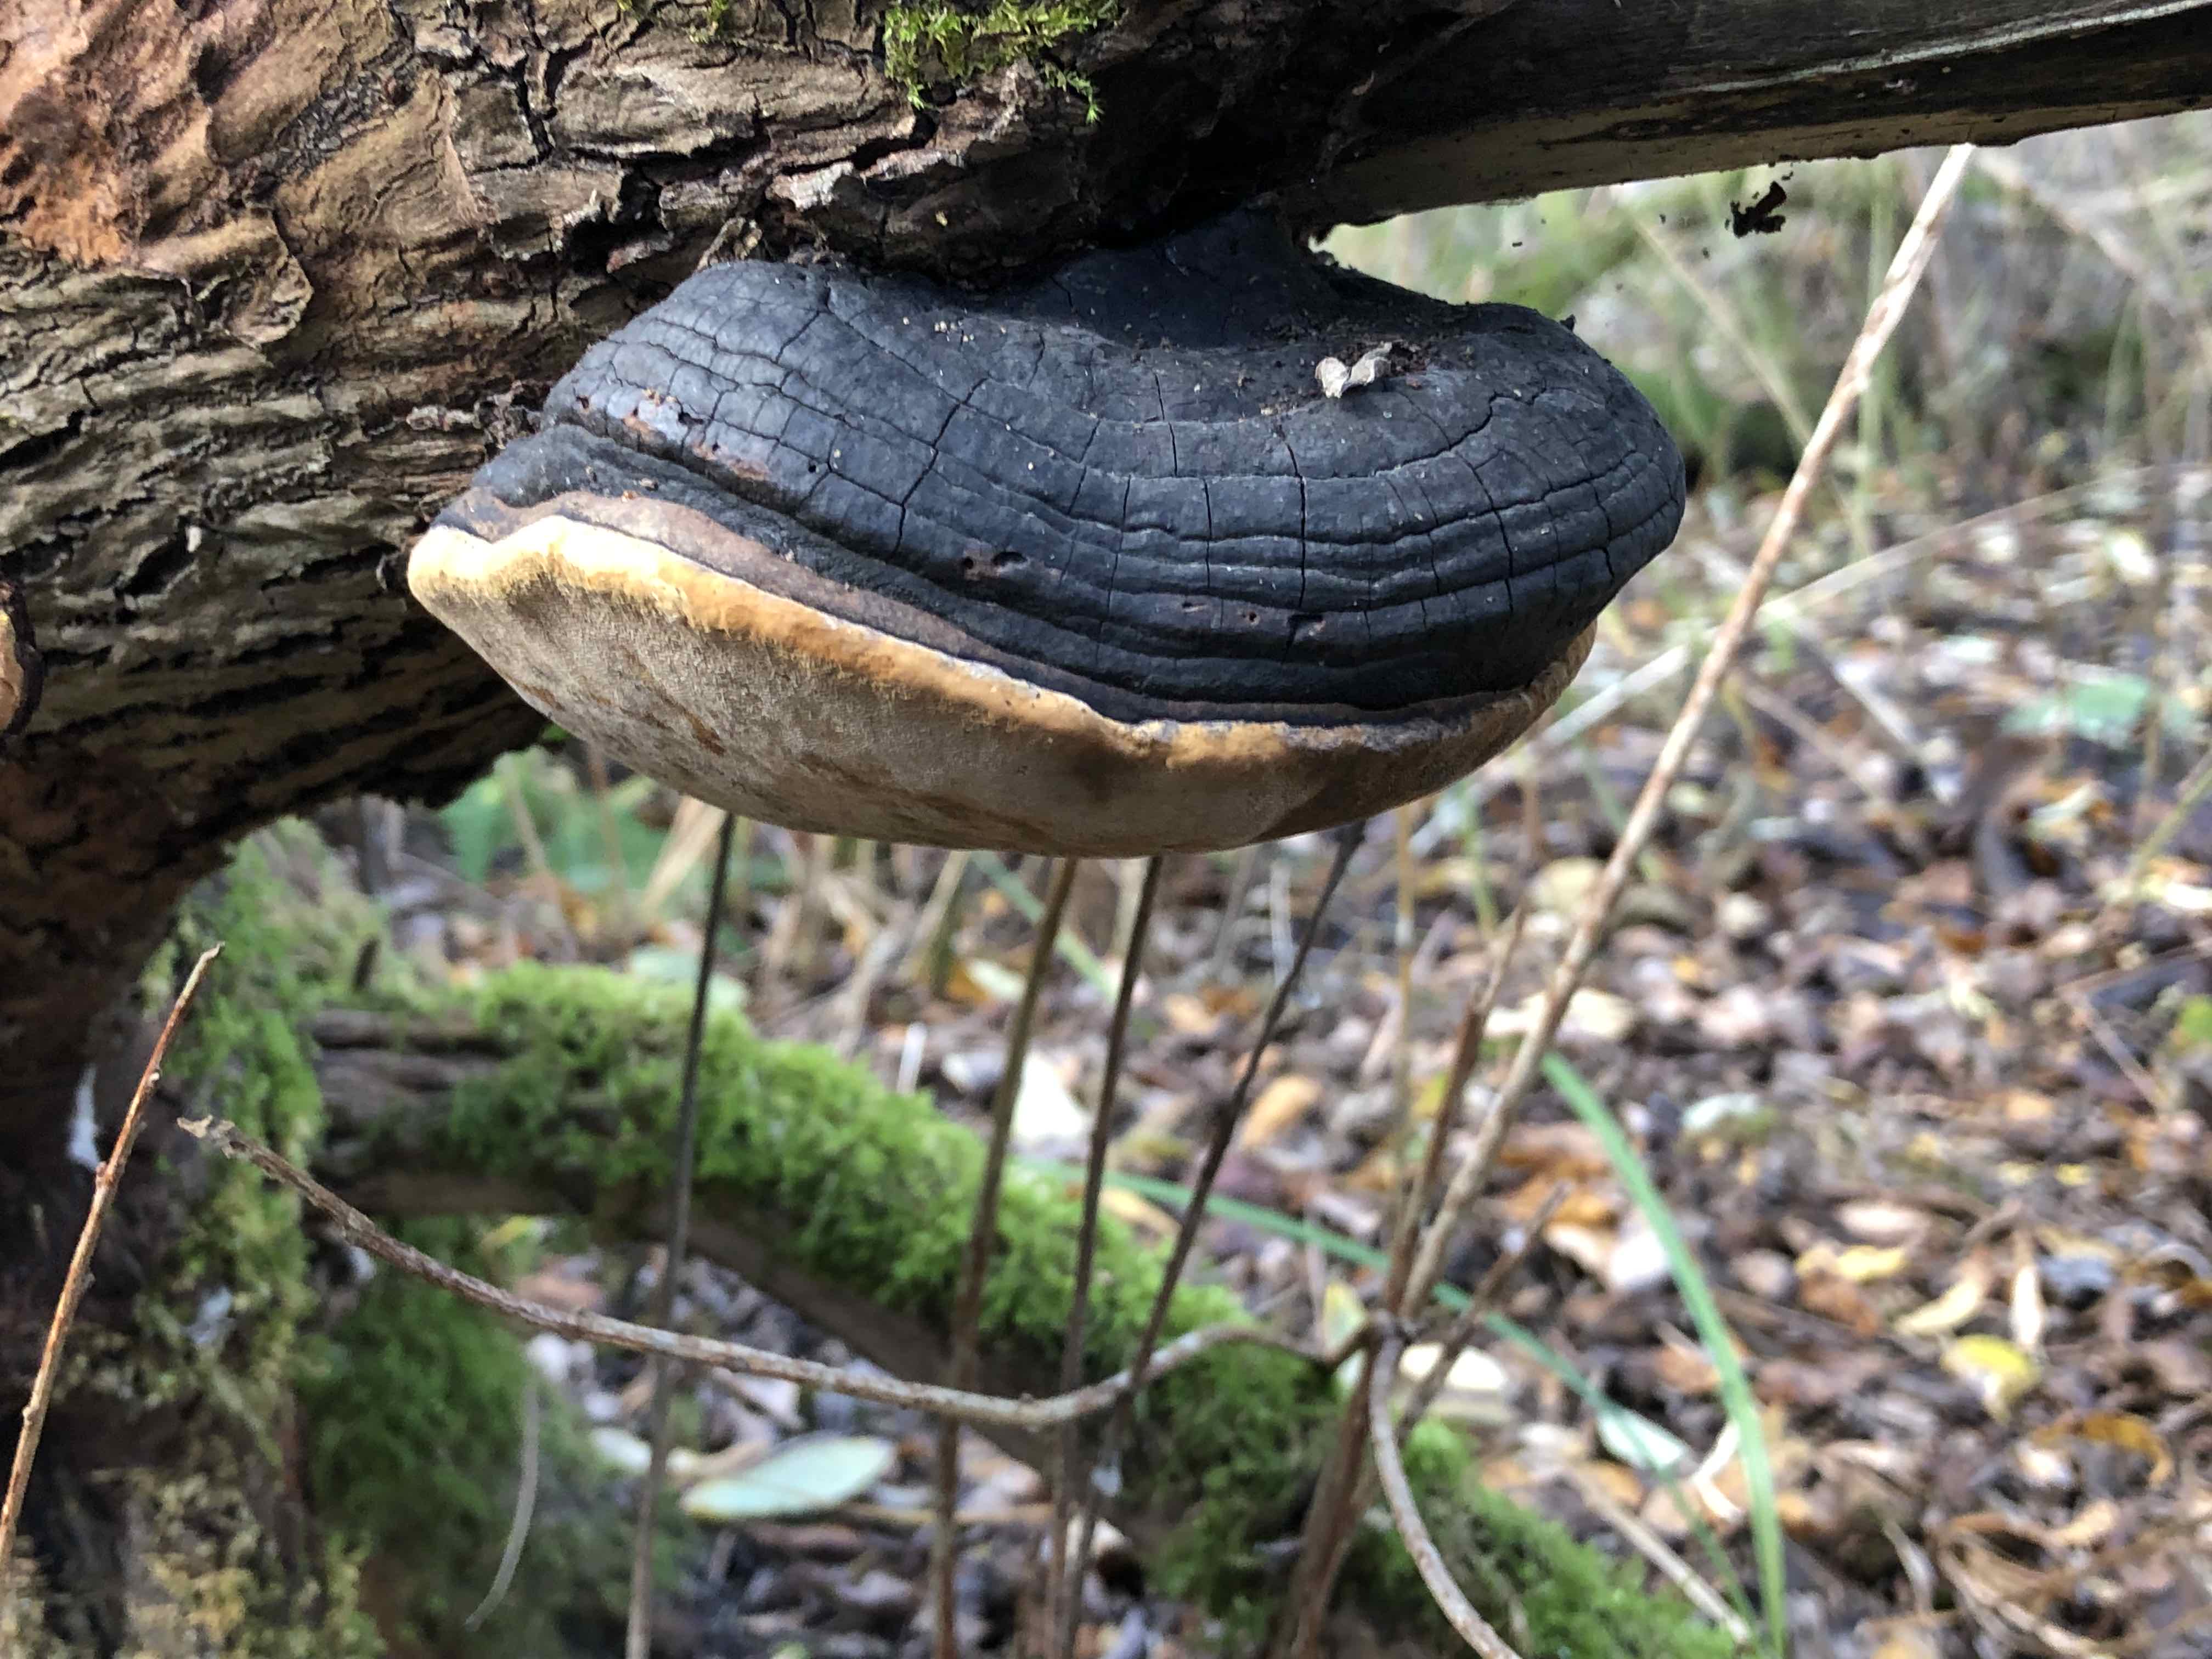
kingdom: Fungi
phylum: Basidiomycota
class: Agaricomycetes
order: Hymenochaetales
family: Hymenochaetaceae
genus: Phellinus
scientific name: Phellinus igniarius
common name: almindelig ildporesvamp
